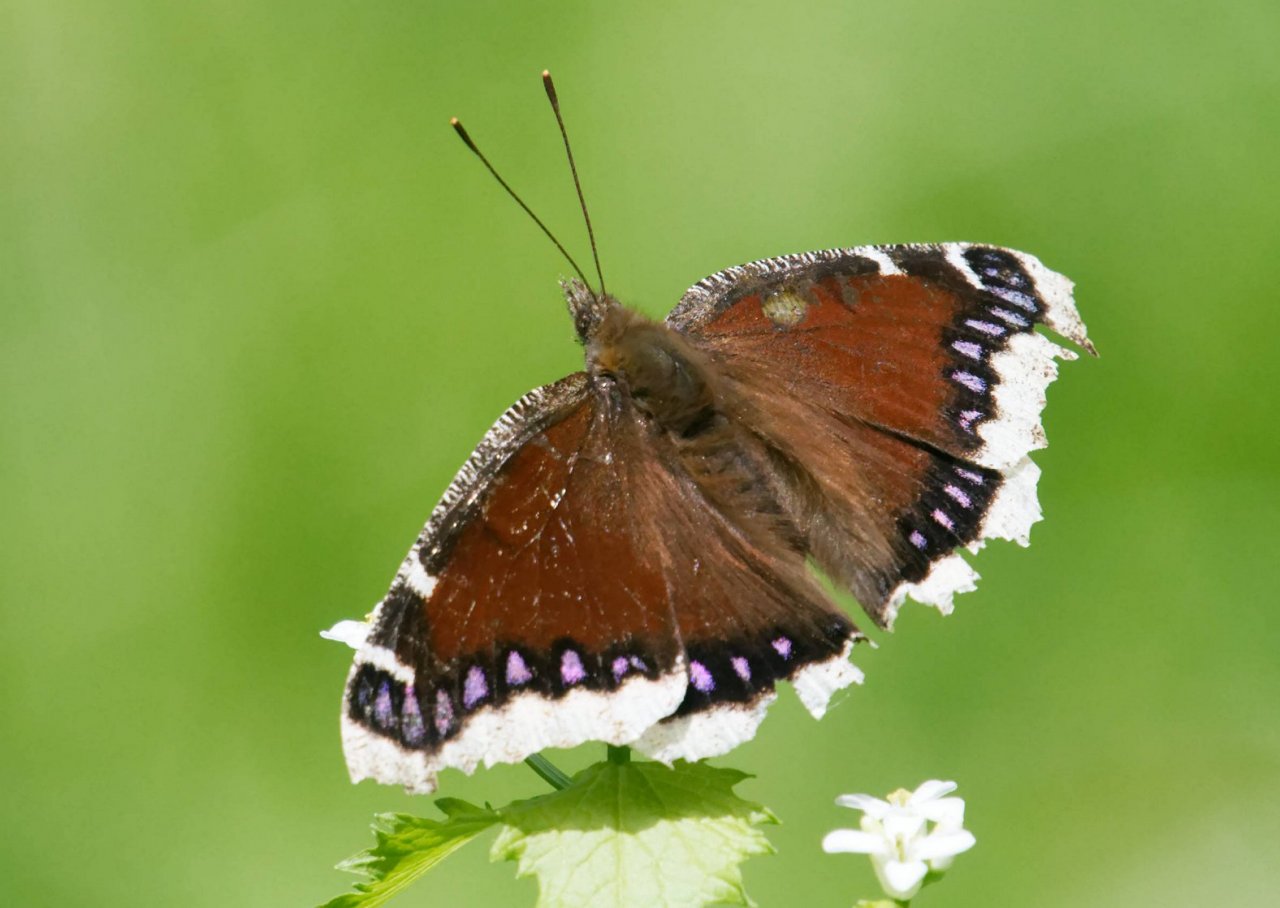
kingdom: Animalia
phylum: Arthropoda
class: Insecta
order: Lepidoptera
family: Nymphalidae
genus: Nymphalis
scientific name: Nymphalis antiopa
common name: Mourning Cloak
